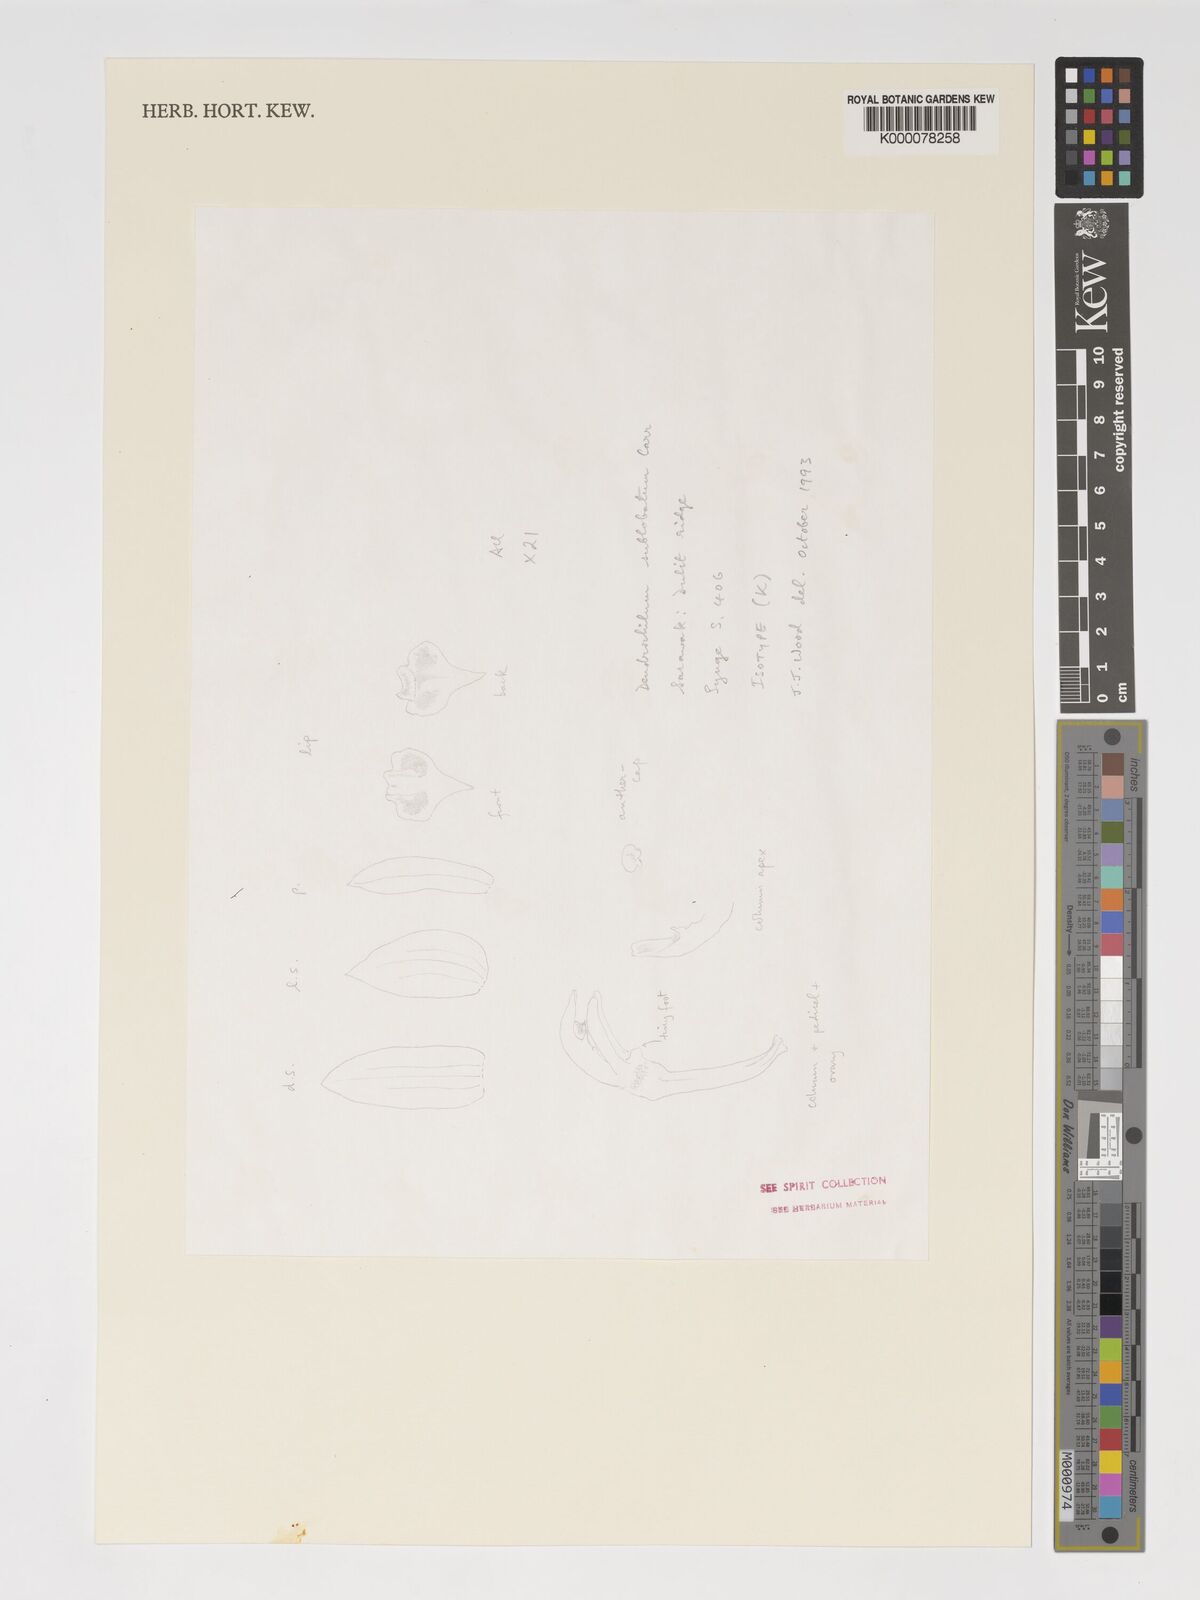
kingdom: Plantae
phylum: Tracheophyta
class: Liliopsida
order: Asparagales
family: Orchidaceae
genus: Coelogyne
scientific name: Coelogyne sublobata
